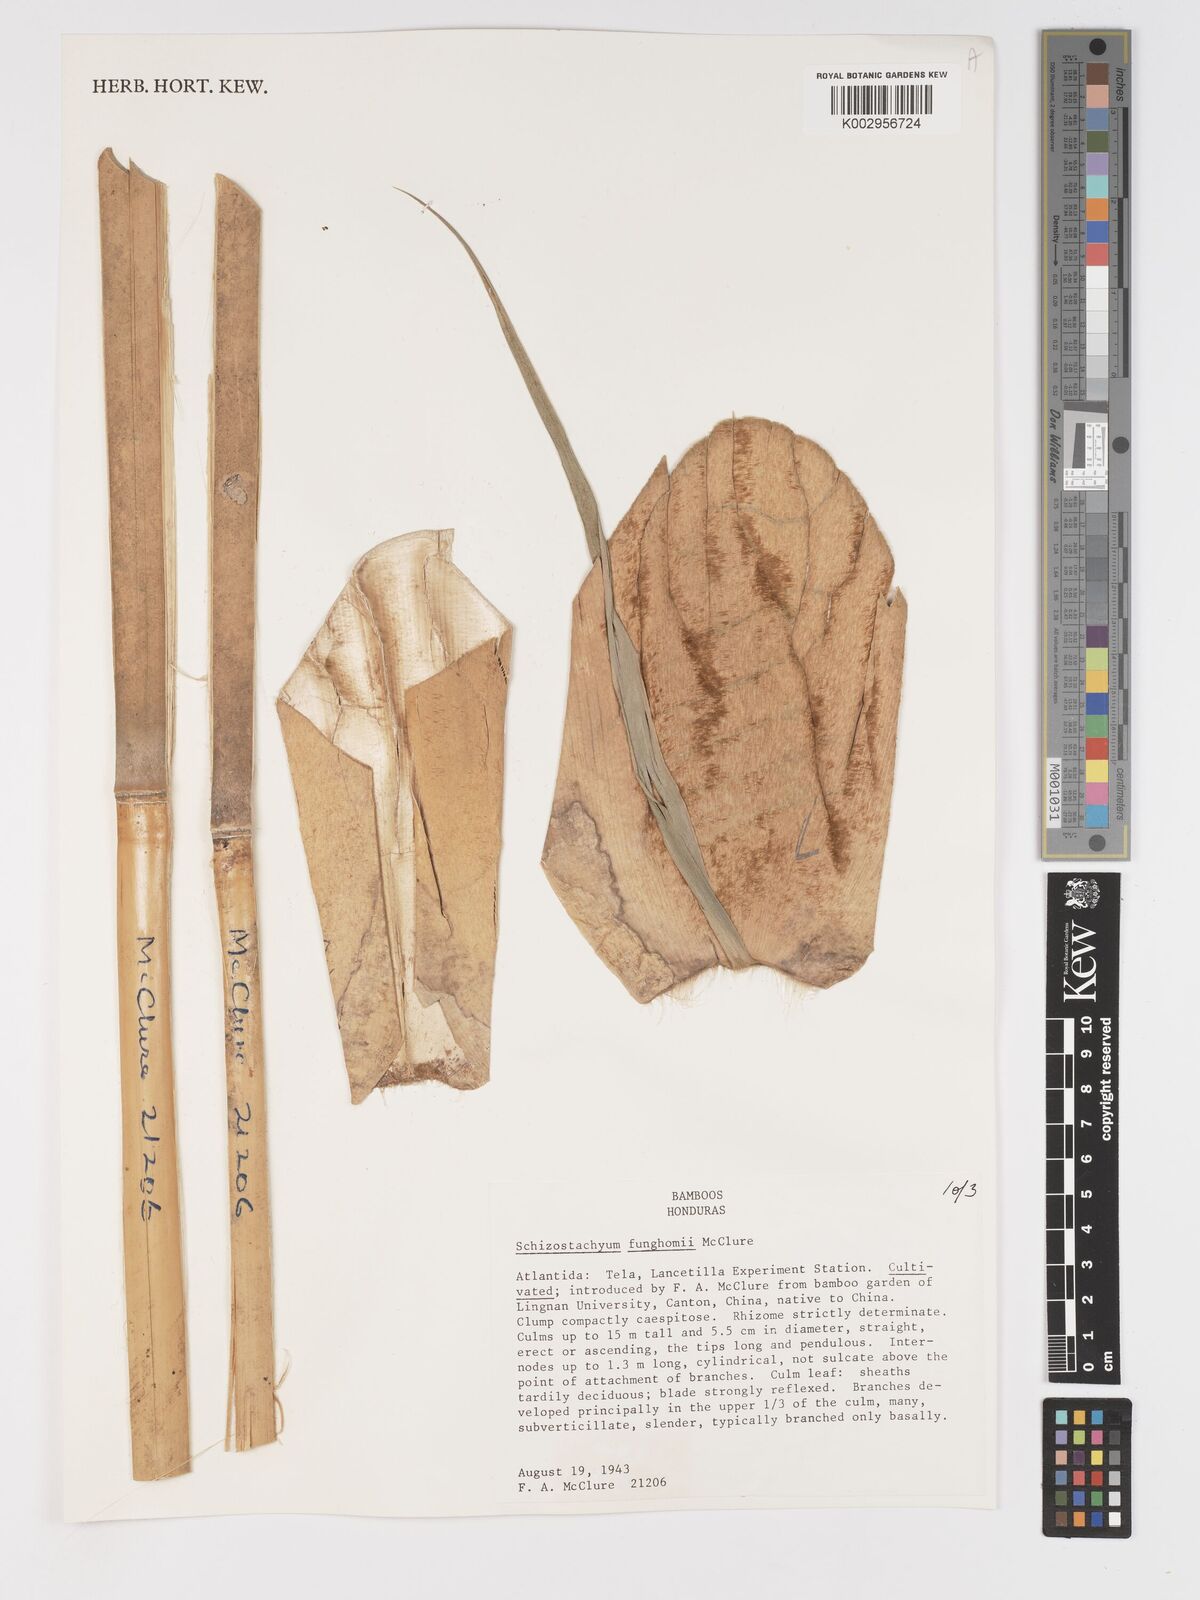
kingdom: Plantae
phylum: Tracheophyta
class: Liliopsida
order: Poales
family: Poaceae
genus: Schizostachyum
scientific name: Schizostachyum funghomii
